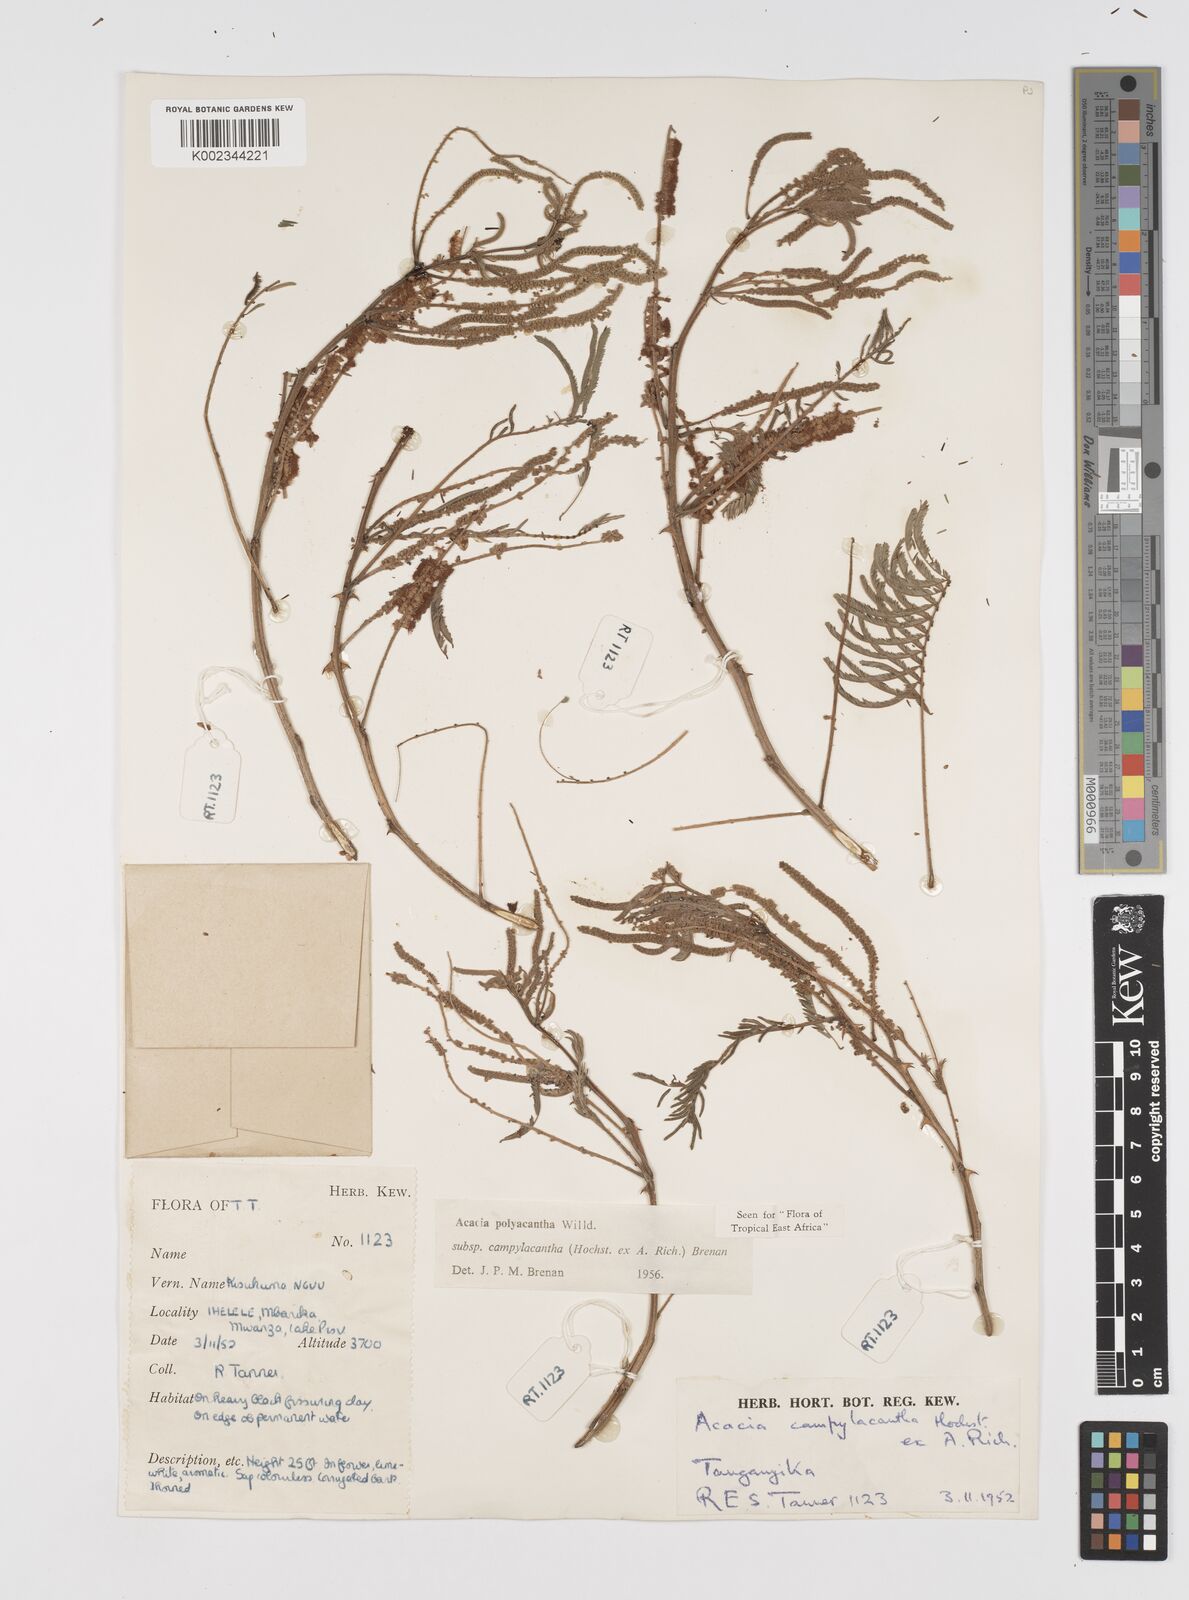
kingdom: Plantae
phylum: Tracheophyta
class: Magnoliopsida
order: Fabales
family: Fabaceae
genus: Senegalia
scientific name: Senegalia polyacantha
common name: Whitethorn
